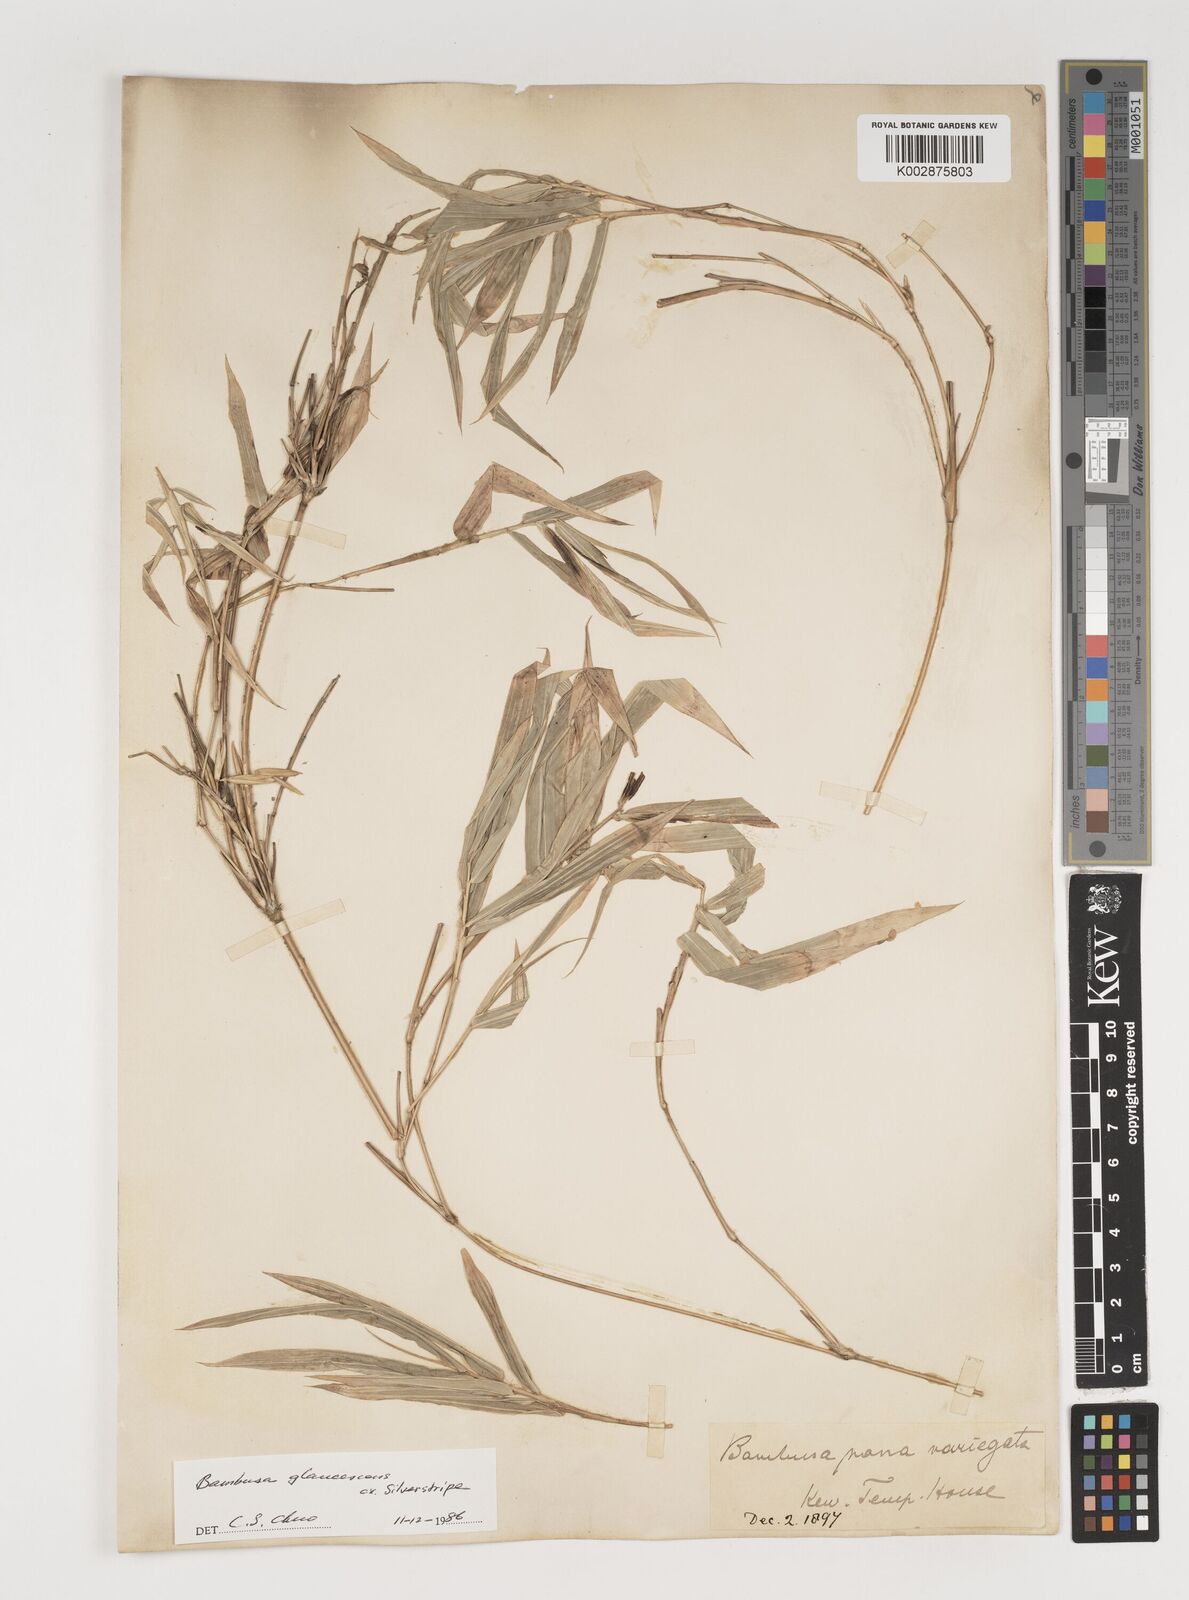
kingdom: Plantae
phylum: Tracheophyta
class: Liliopsida
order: Poales
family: Poaceae
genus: Bambusa
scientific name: Bambusa multiplex
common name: Hedge bamboo
